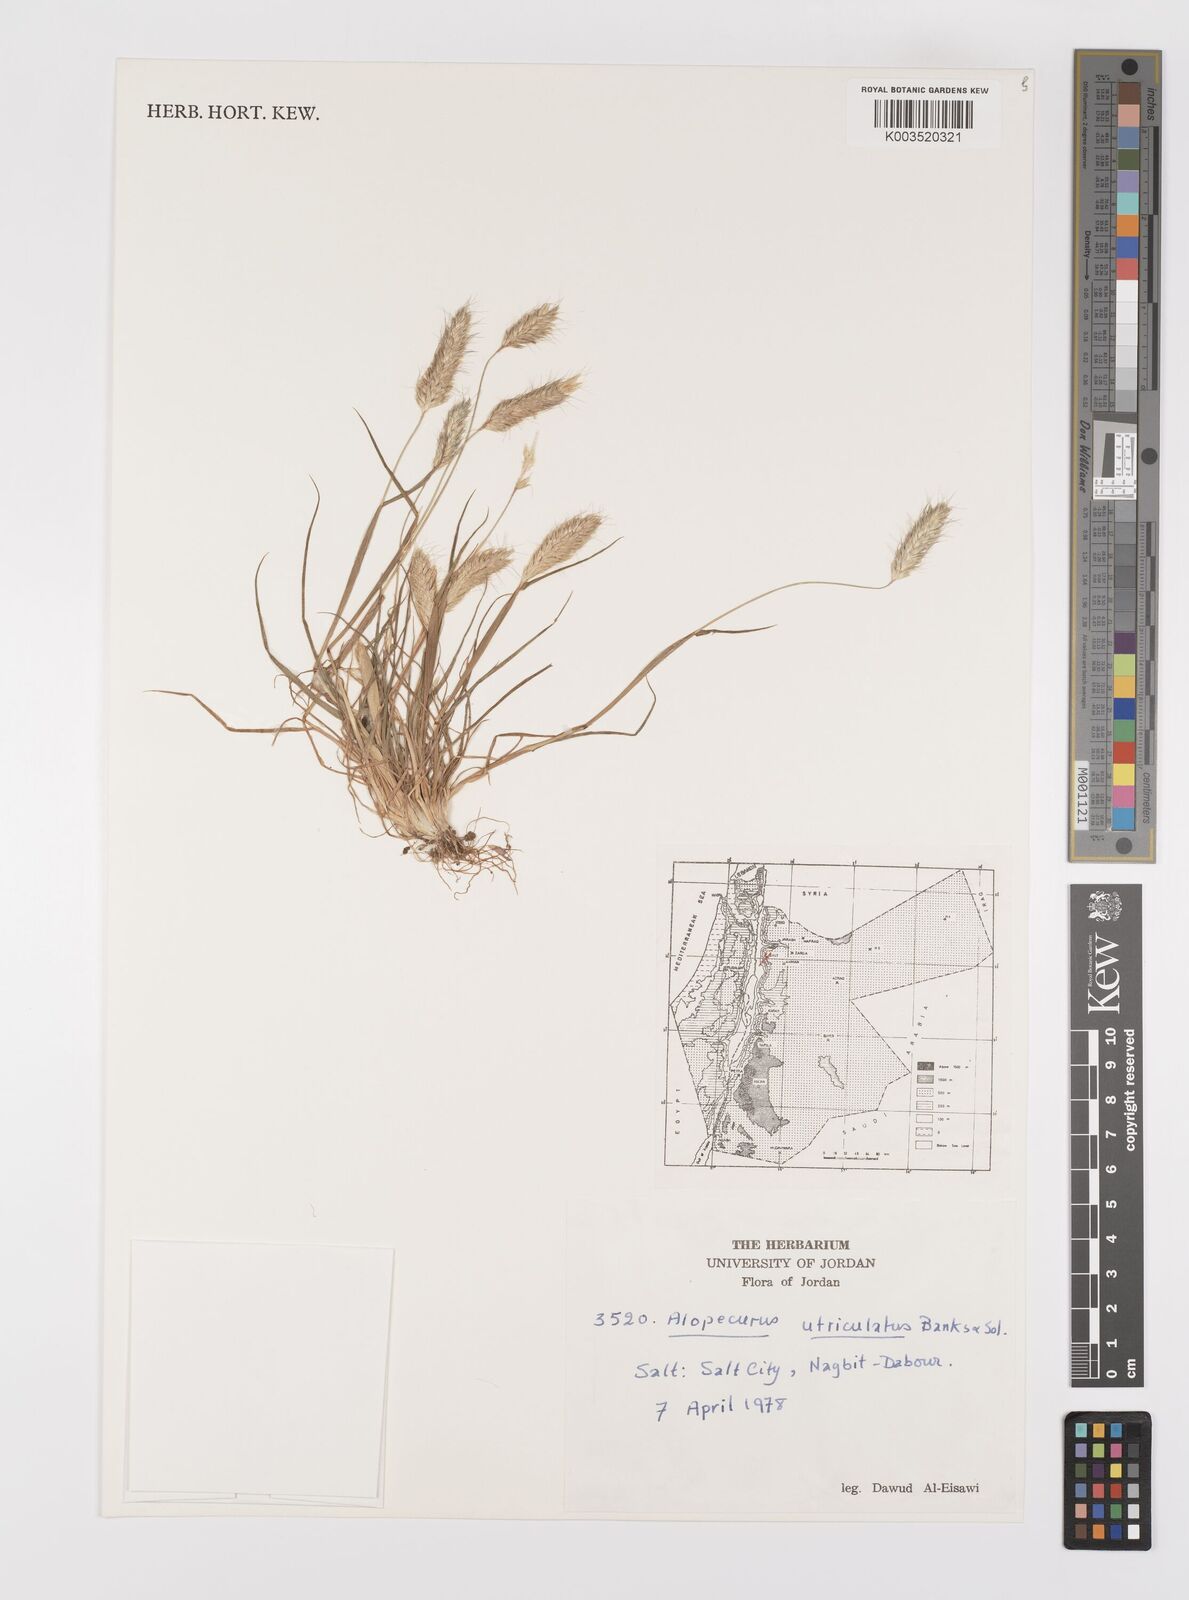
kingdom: Plantae
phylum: Tracheophyta
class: Liliopsida
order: Poales
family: Poaceae
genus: Alopecurus
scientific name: Alopecurus utriculatus
